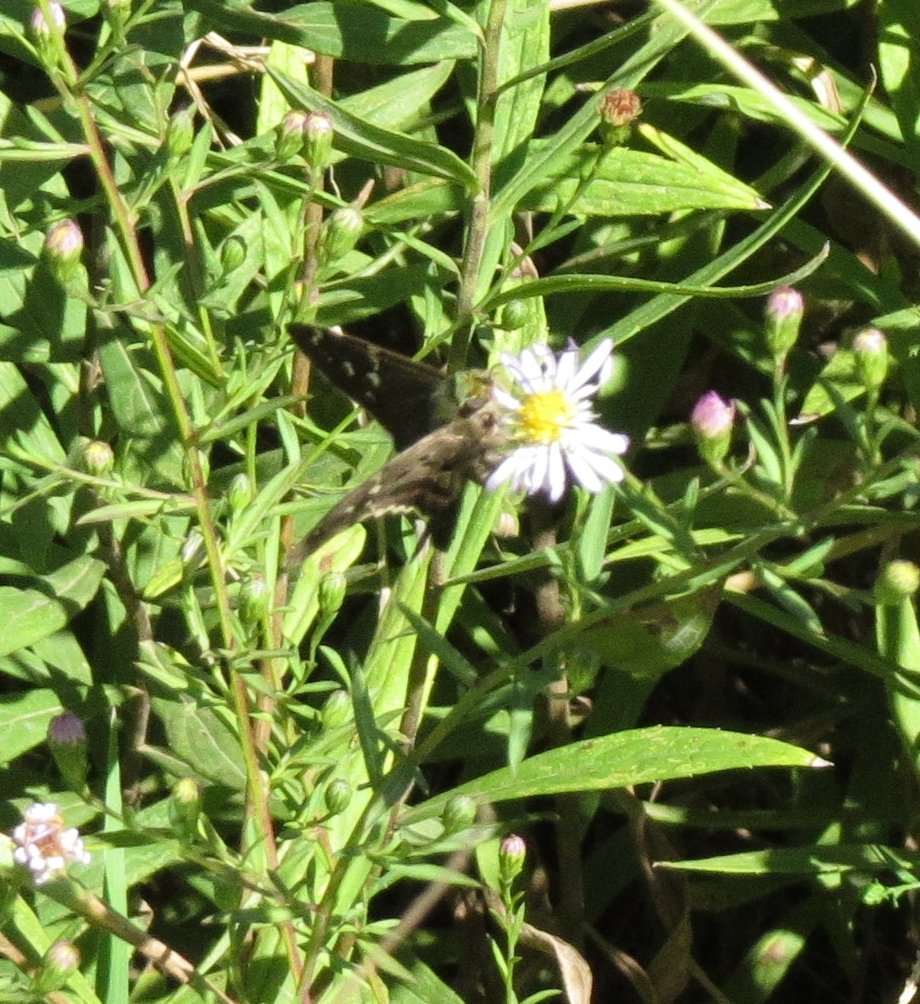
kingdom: Animalia
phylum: Arthropoda
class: Insecta
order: Lepidoptera
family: Hesperiidae
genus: Urbanus
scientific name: Urbanus proteus
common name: Long-tailed Skipper
